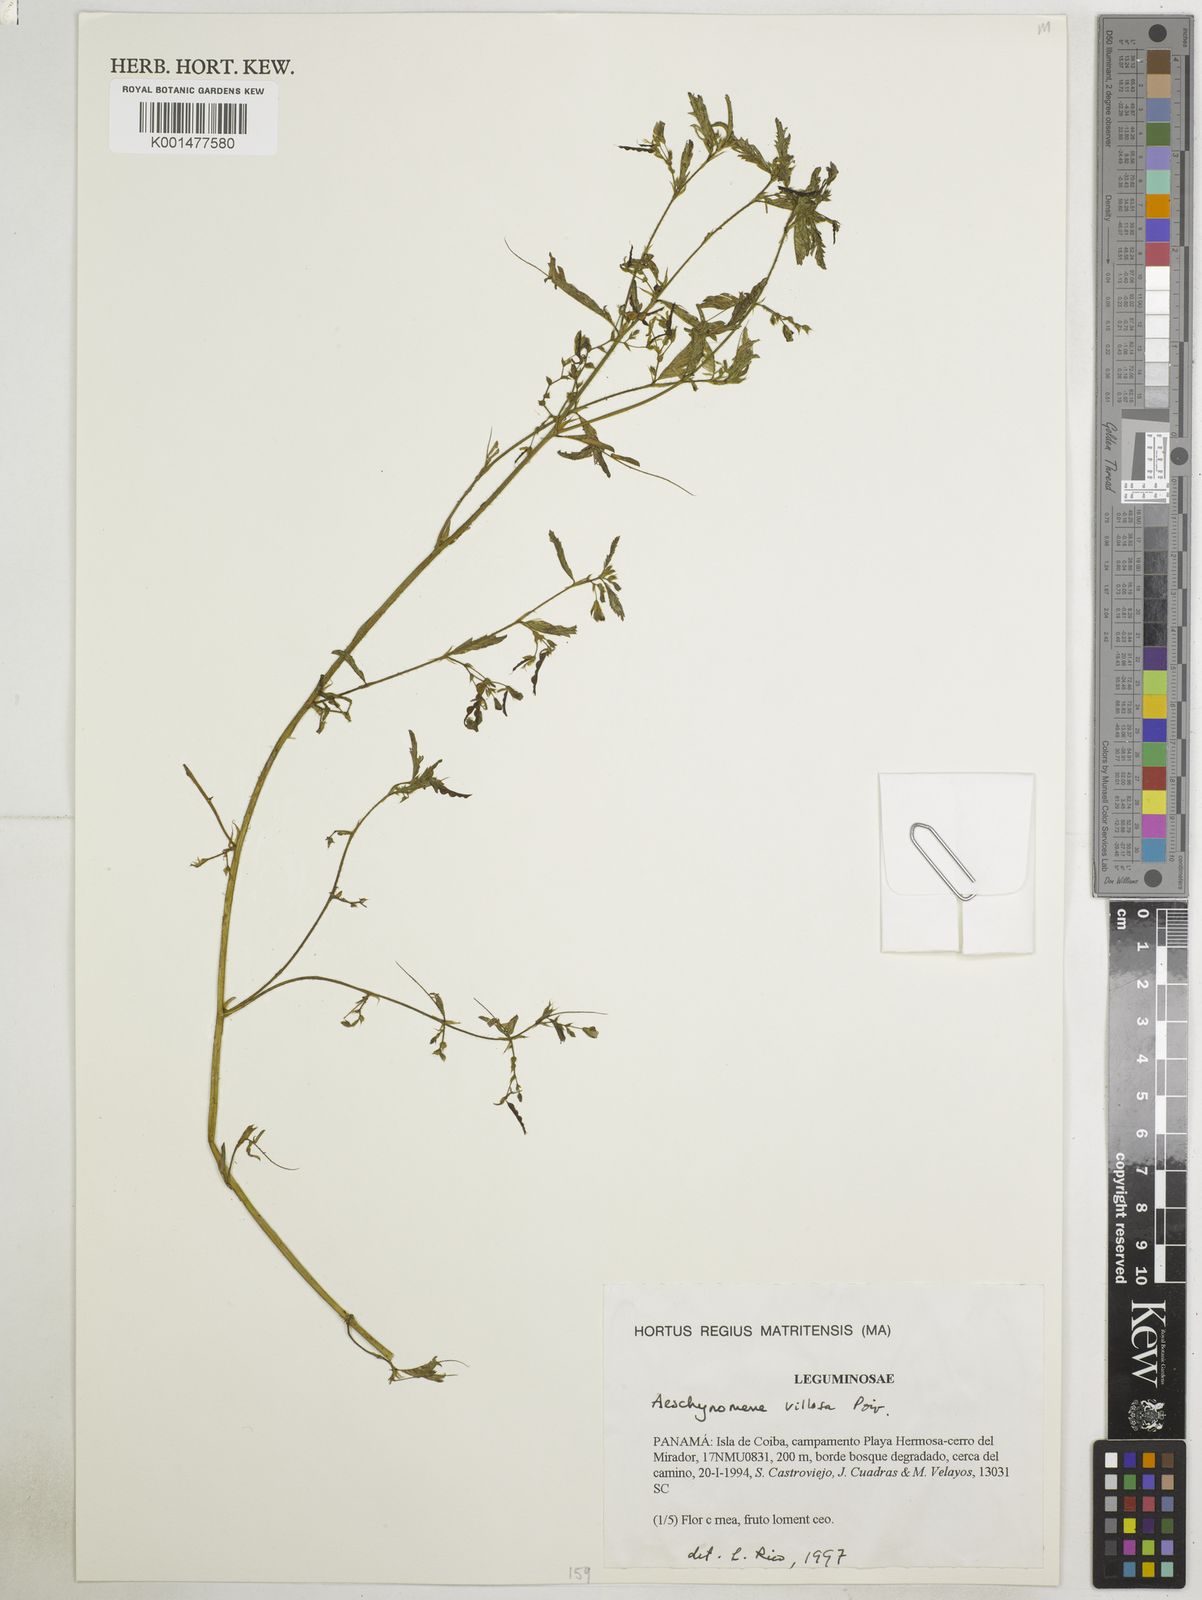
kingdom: Plantae
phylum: Tracheophyta
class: Magnoliopsida
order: Fabales
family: Fabaceae
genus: Aeschynomene
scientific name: Aeschynomene villosa
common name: Hairy-jointvetch
